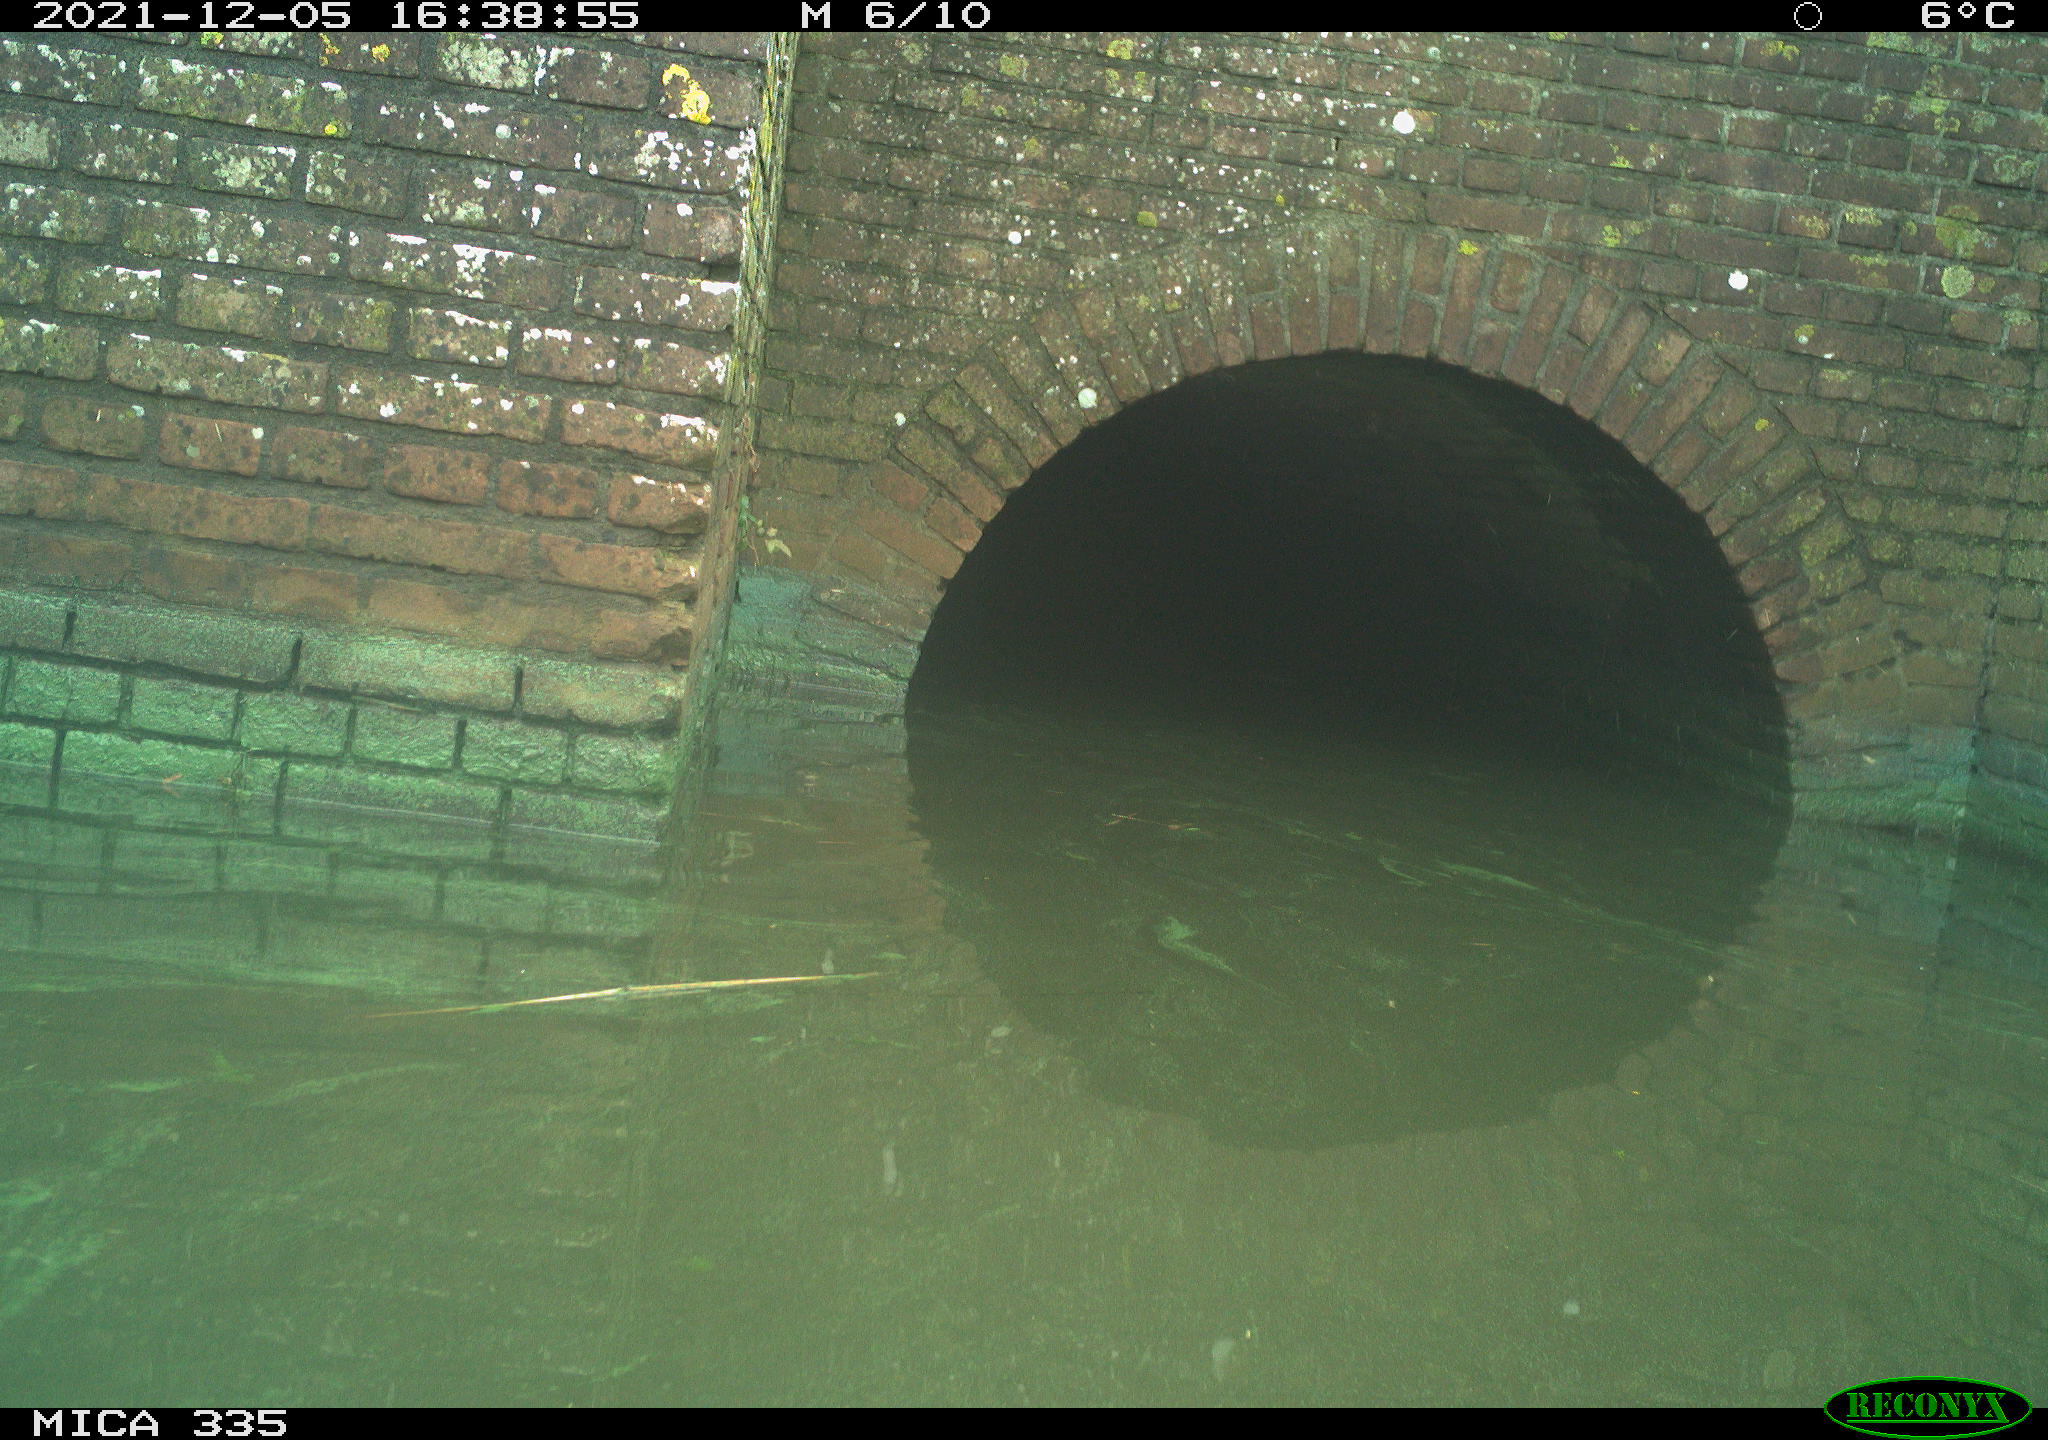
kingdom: Animalia
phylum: Chordata
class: Aves
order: Gruiformes
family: Rallidae
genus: Gallinula
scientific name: Gallinula chloropus
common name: Common moorhen
